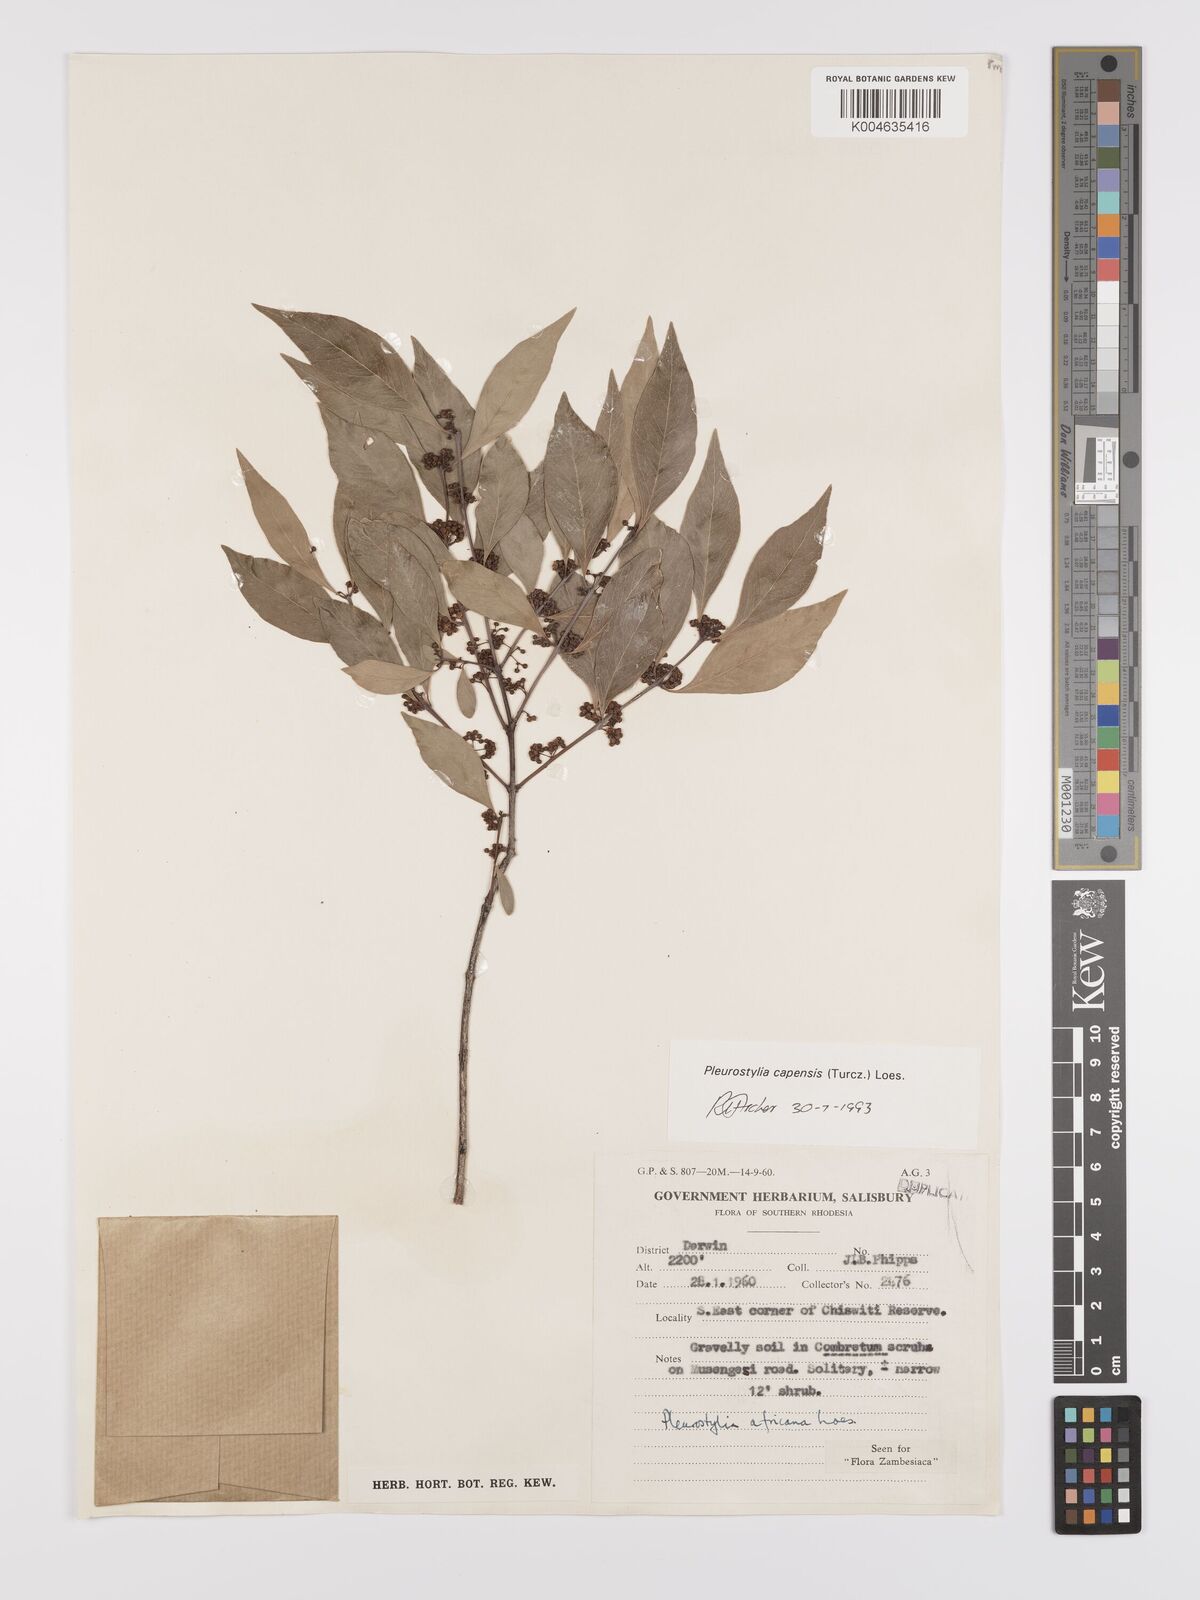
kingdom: Plantae
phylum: Tracheophyta
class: Magnoliopsida
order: Celastrales
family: Celastraceae
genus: Pleurostylia
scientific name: Pleurostylia africana
